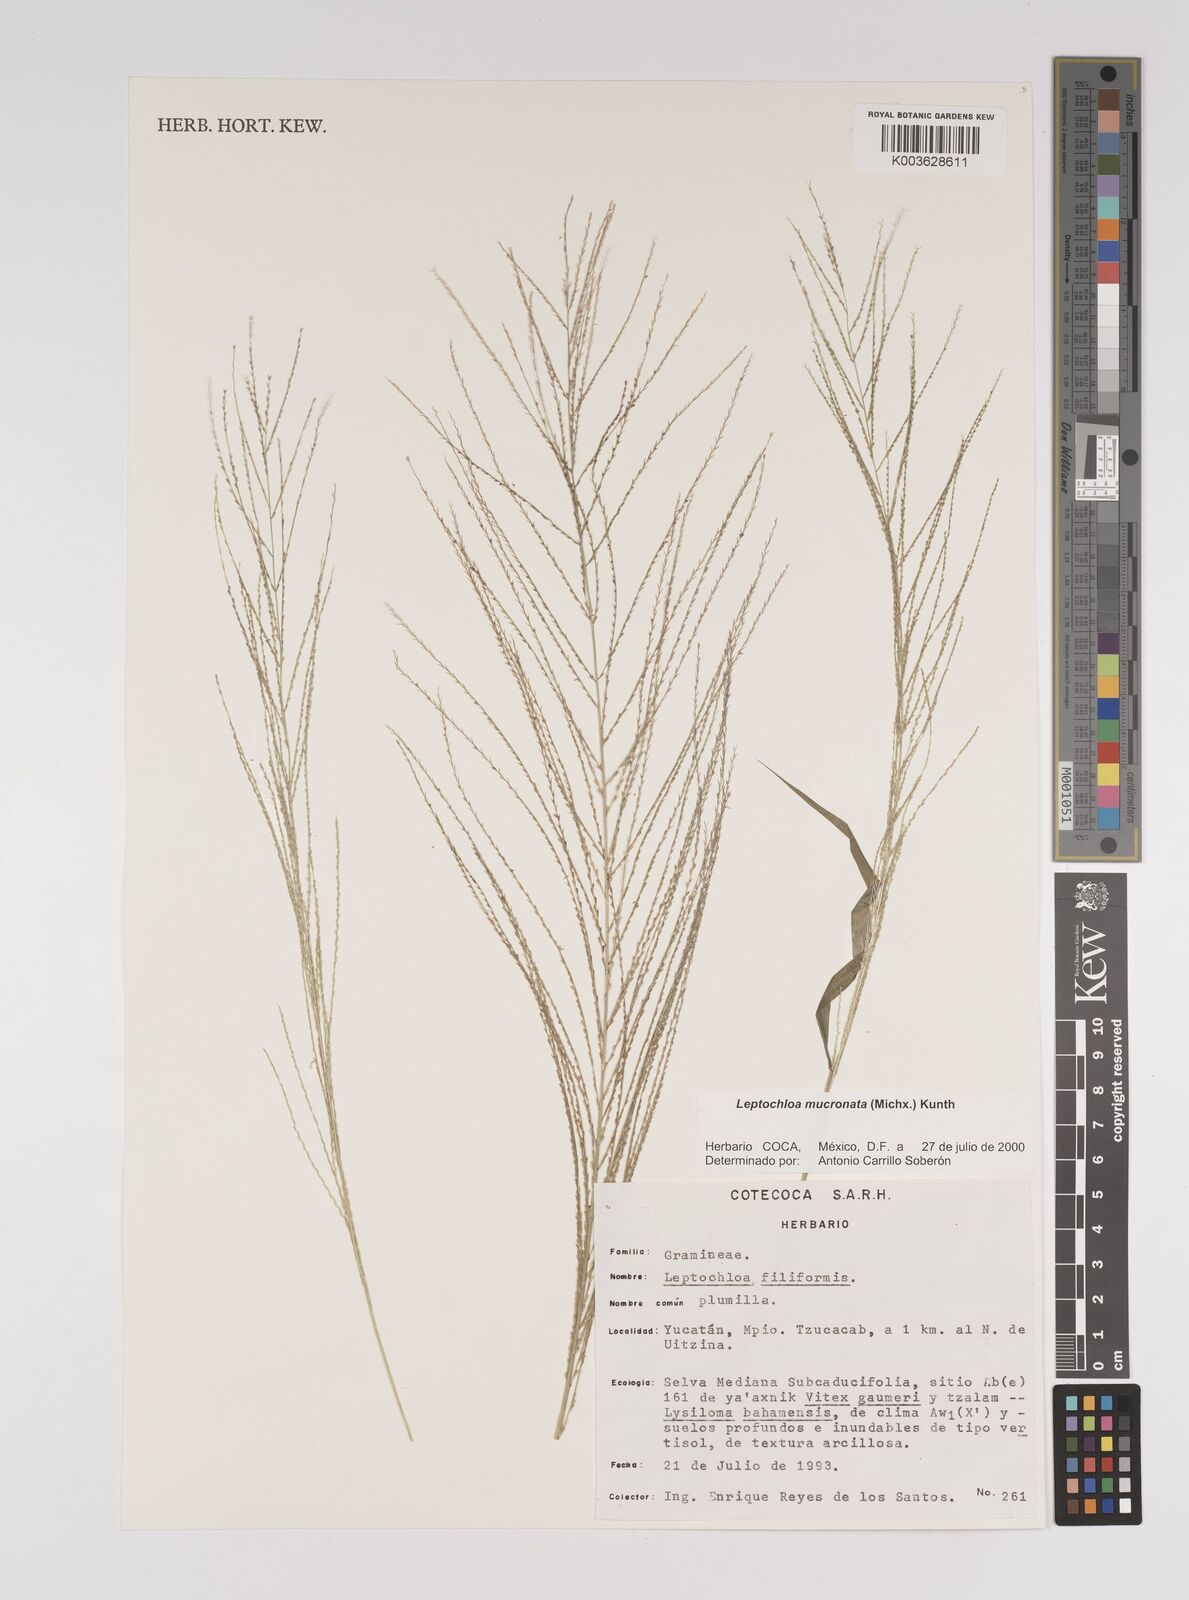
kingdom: Plantae
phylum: Tracheophyta
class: Liliopsida
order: Poales
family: Poaceae
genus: Leptochloa
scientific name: Leptochloa panicea
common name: Mucronate sprangletop
